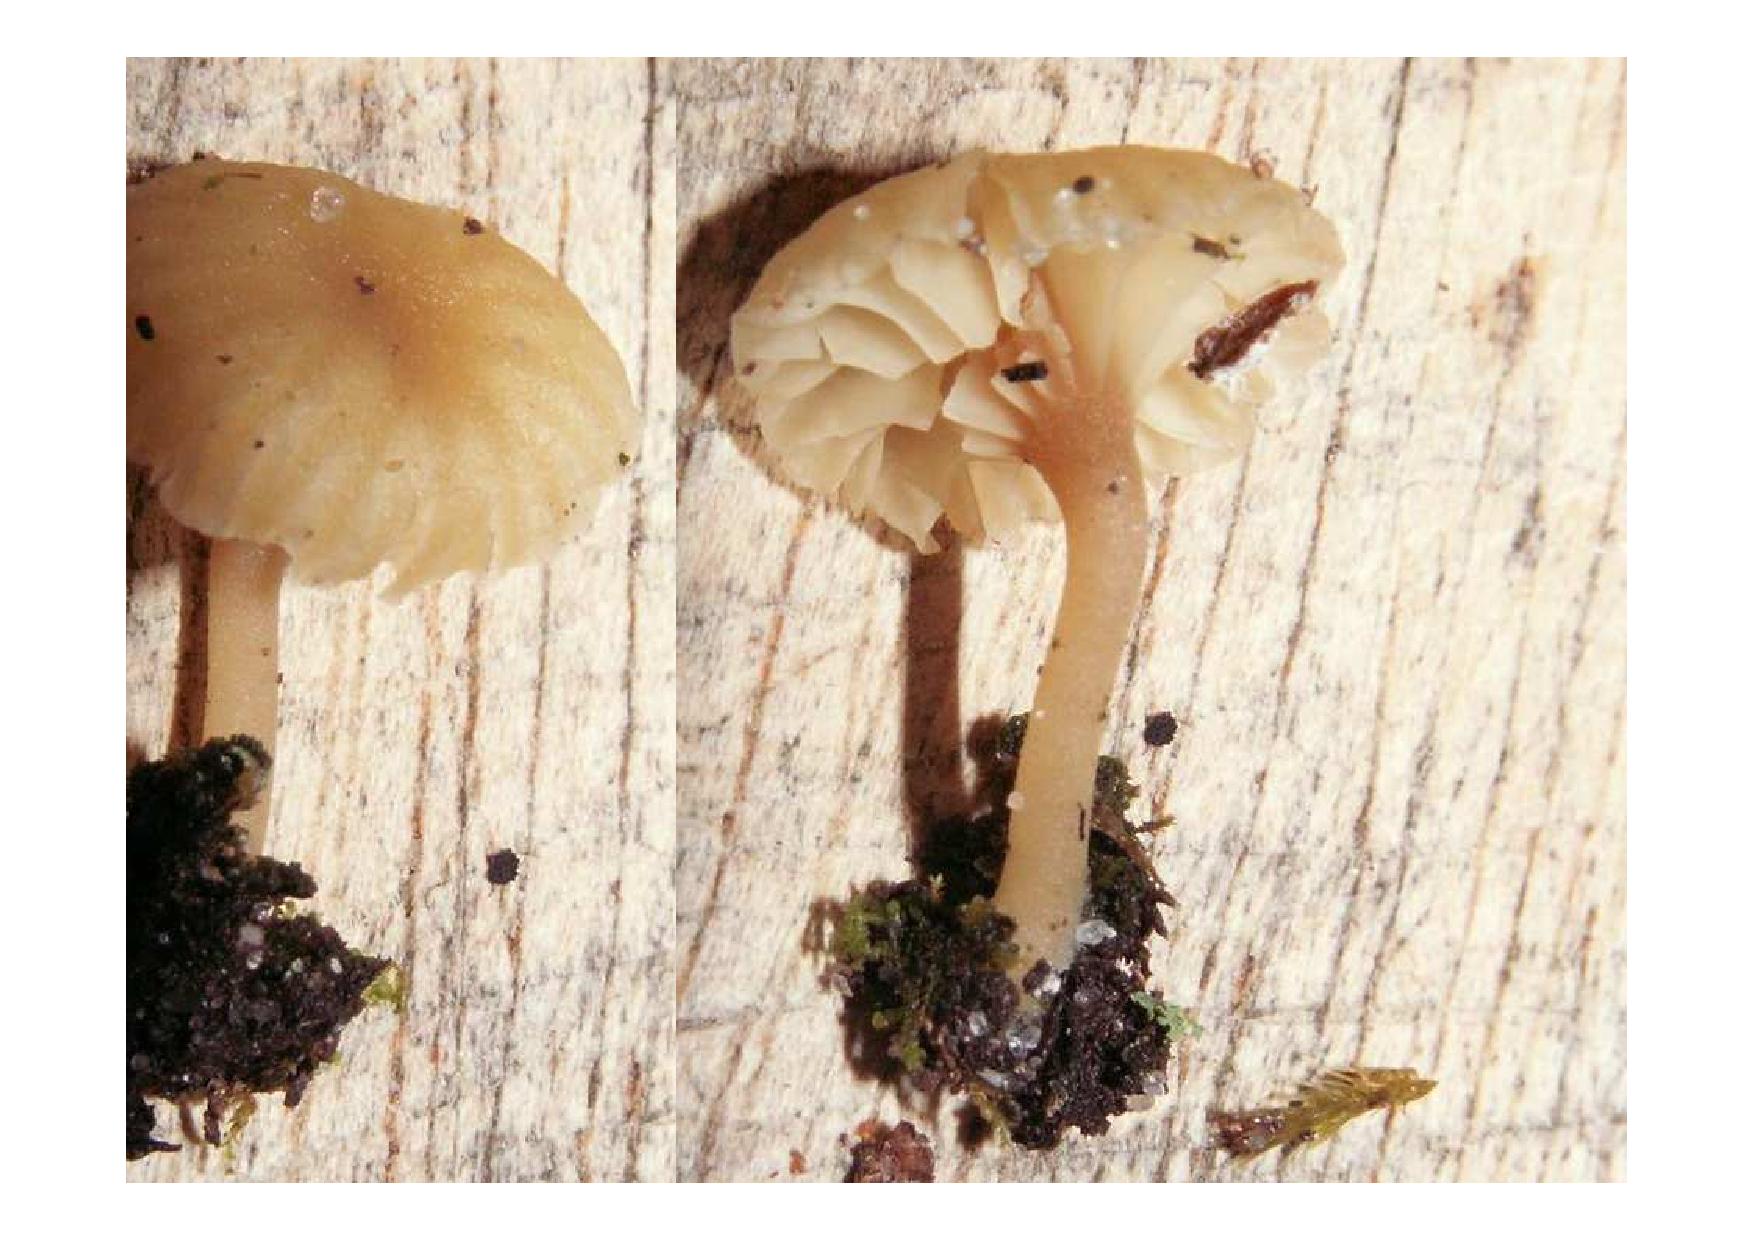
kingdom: Fungi
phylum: Basidiomycota
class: Agaricomycetes
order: Agaricales
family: Hygrophoraceae
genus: Lichenomphalia
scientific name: Lichenomphalia umbellifera
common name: tørve-lavhat
